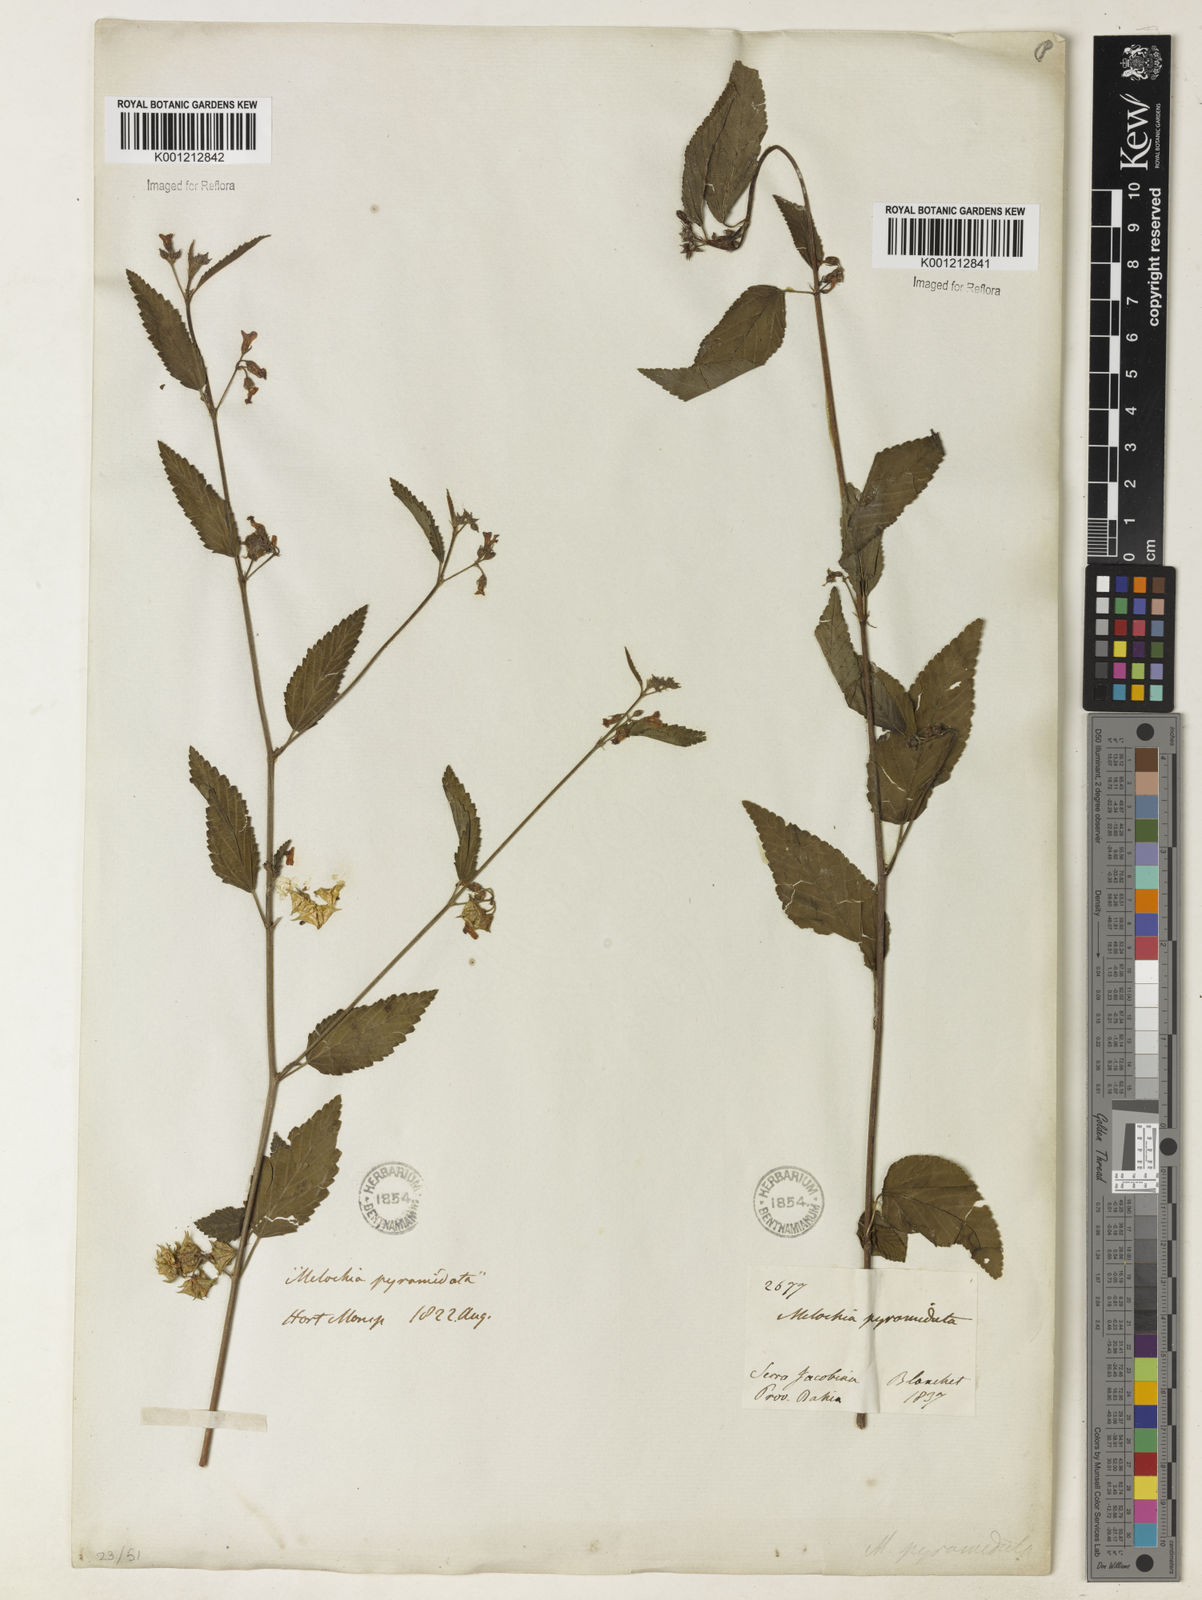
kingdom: Plantae
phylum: Tracheophyta
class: Magnoliopsida
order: Malvales
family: Malvaceae
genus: Melochia
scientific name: Melochia pyramidata
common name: Pyramidflower
